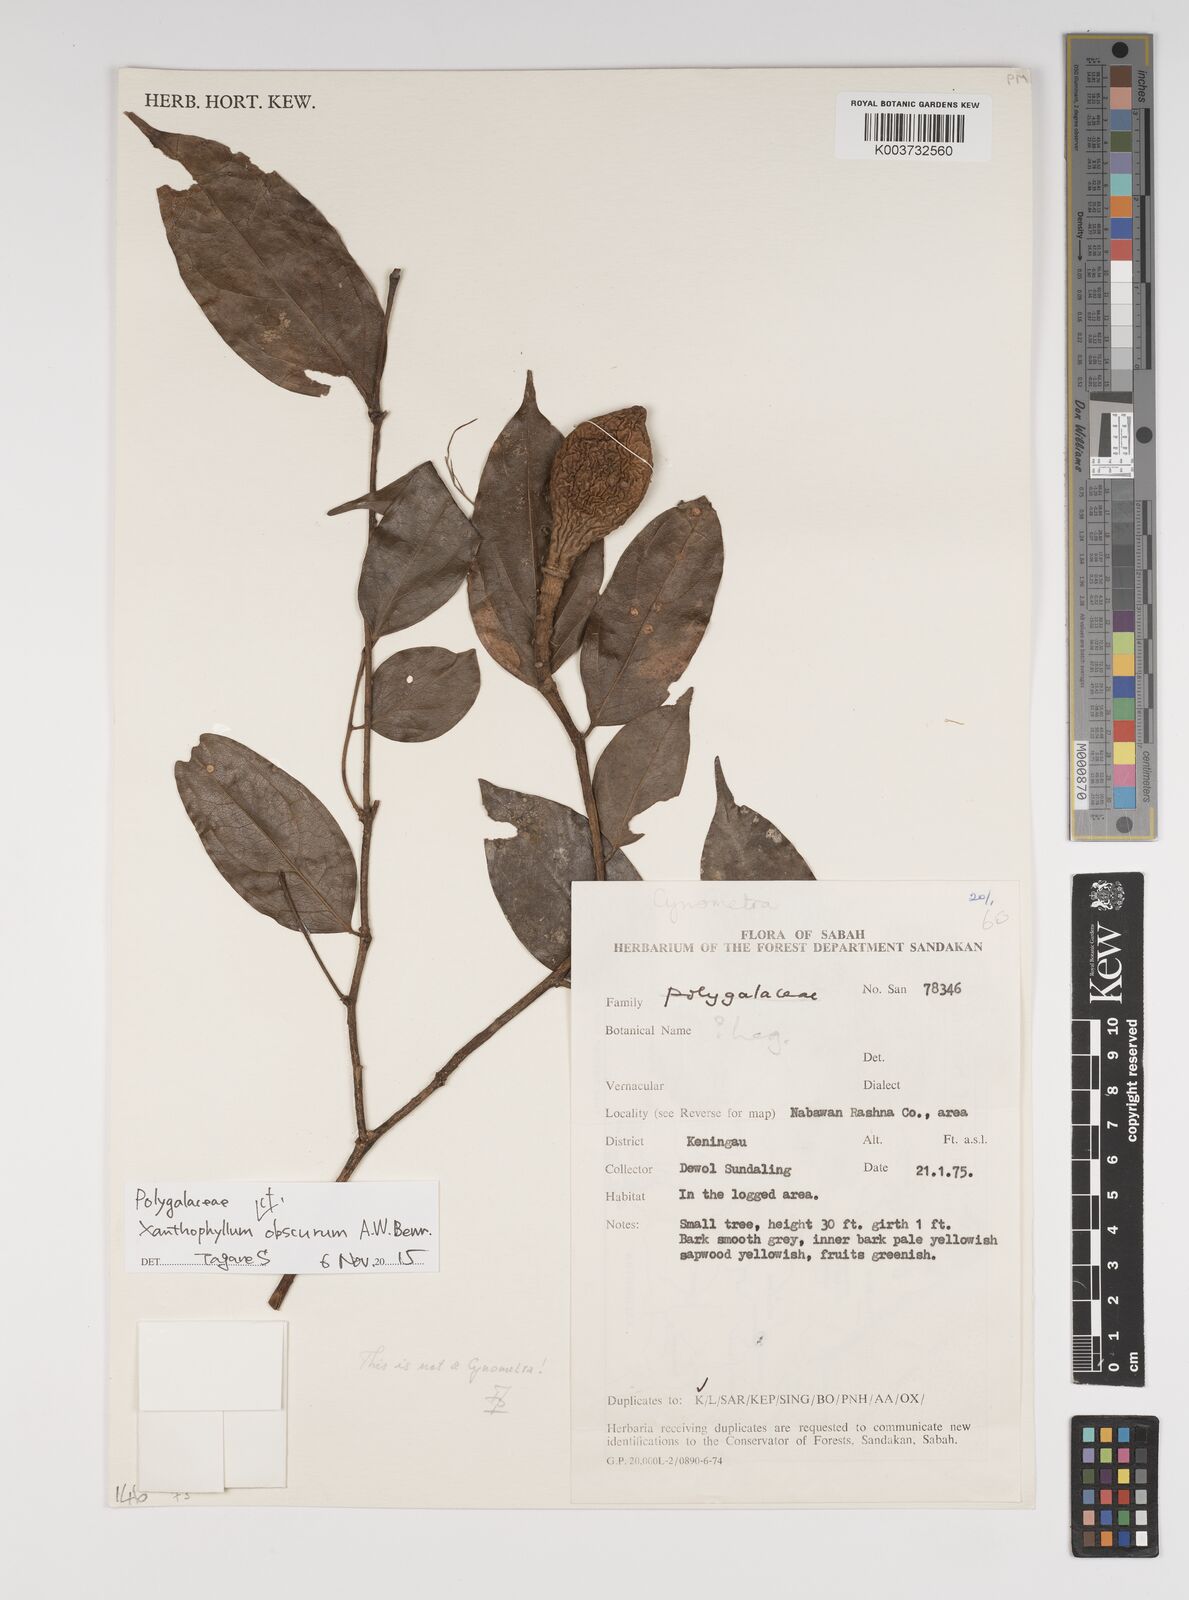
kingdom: Plantae
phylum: Tracheophyta
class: Magnoliopsida
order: Fabales
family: Polygalaceae
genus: Xanthophyllum
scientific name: Xanthophyllum obscurum
